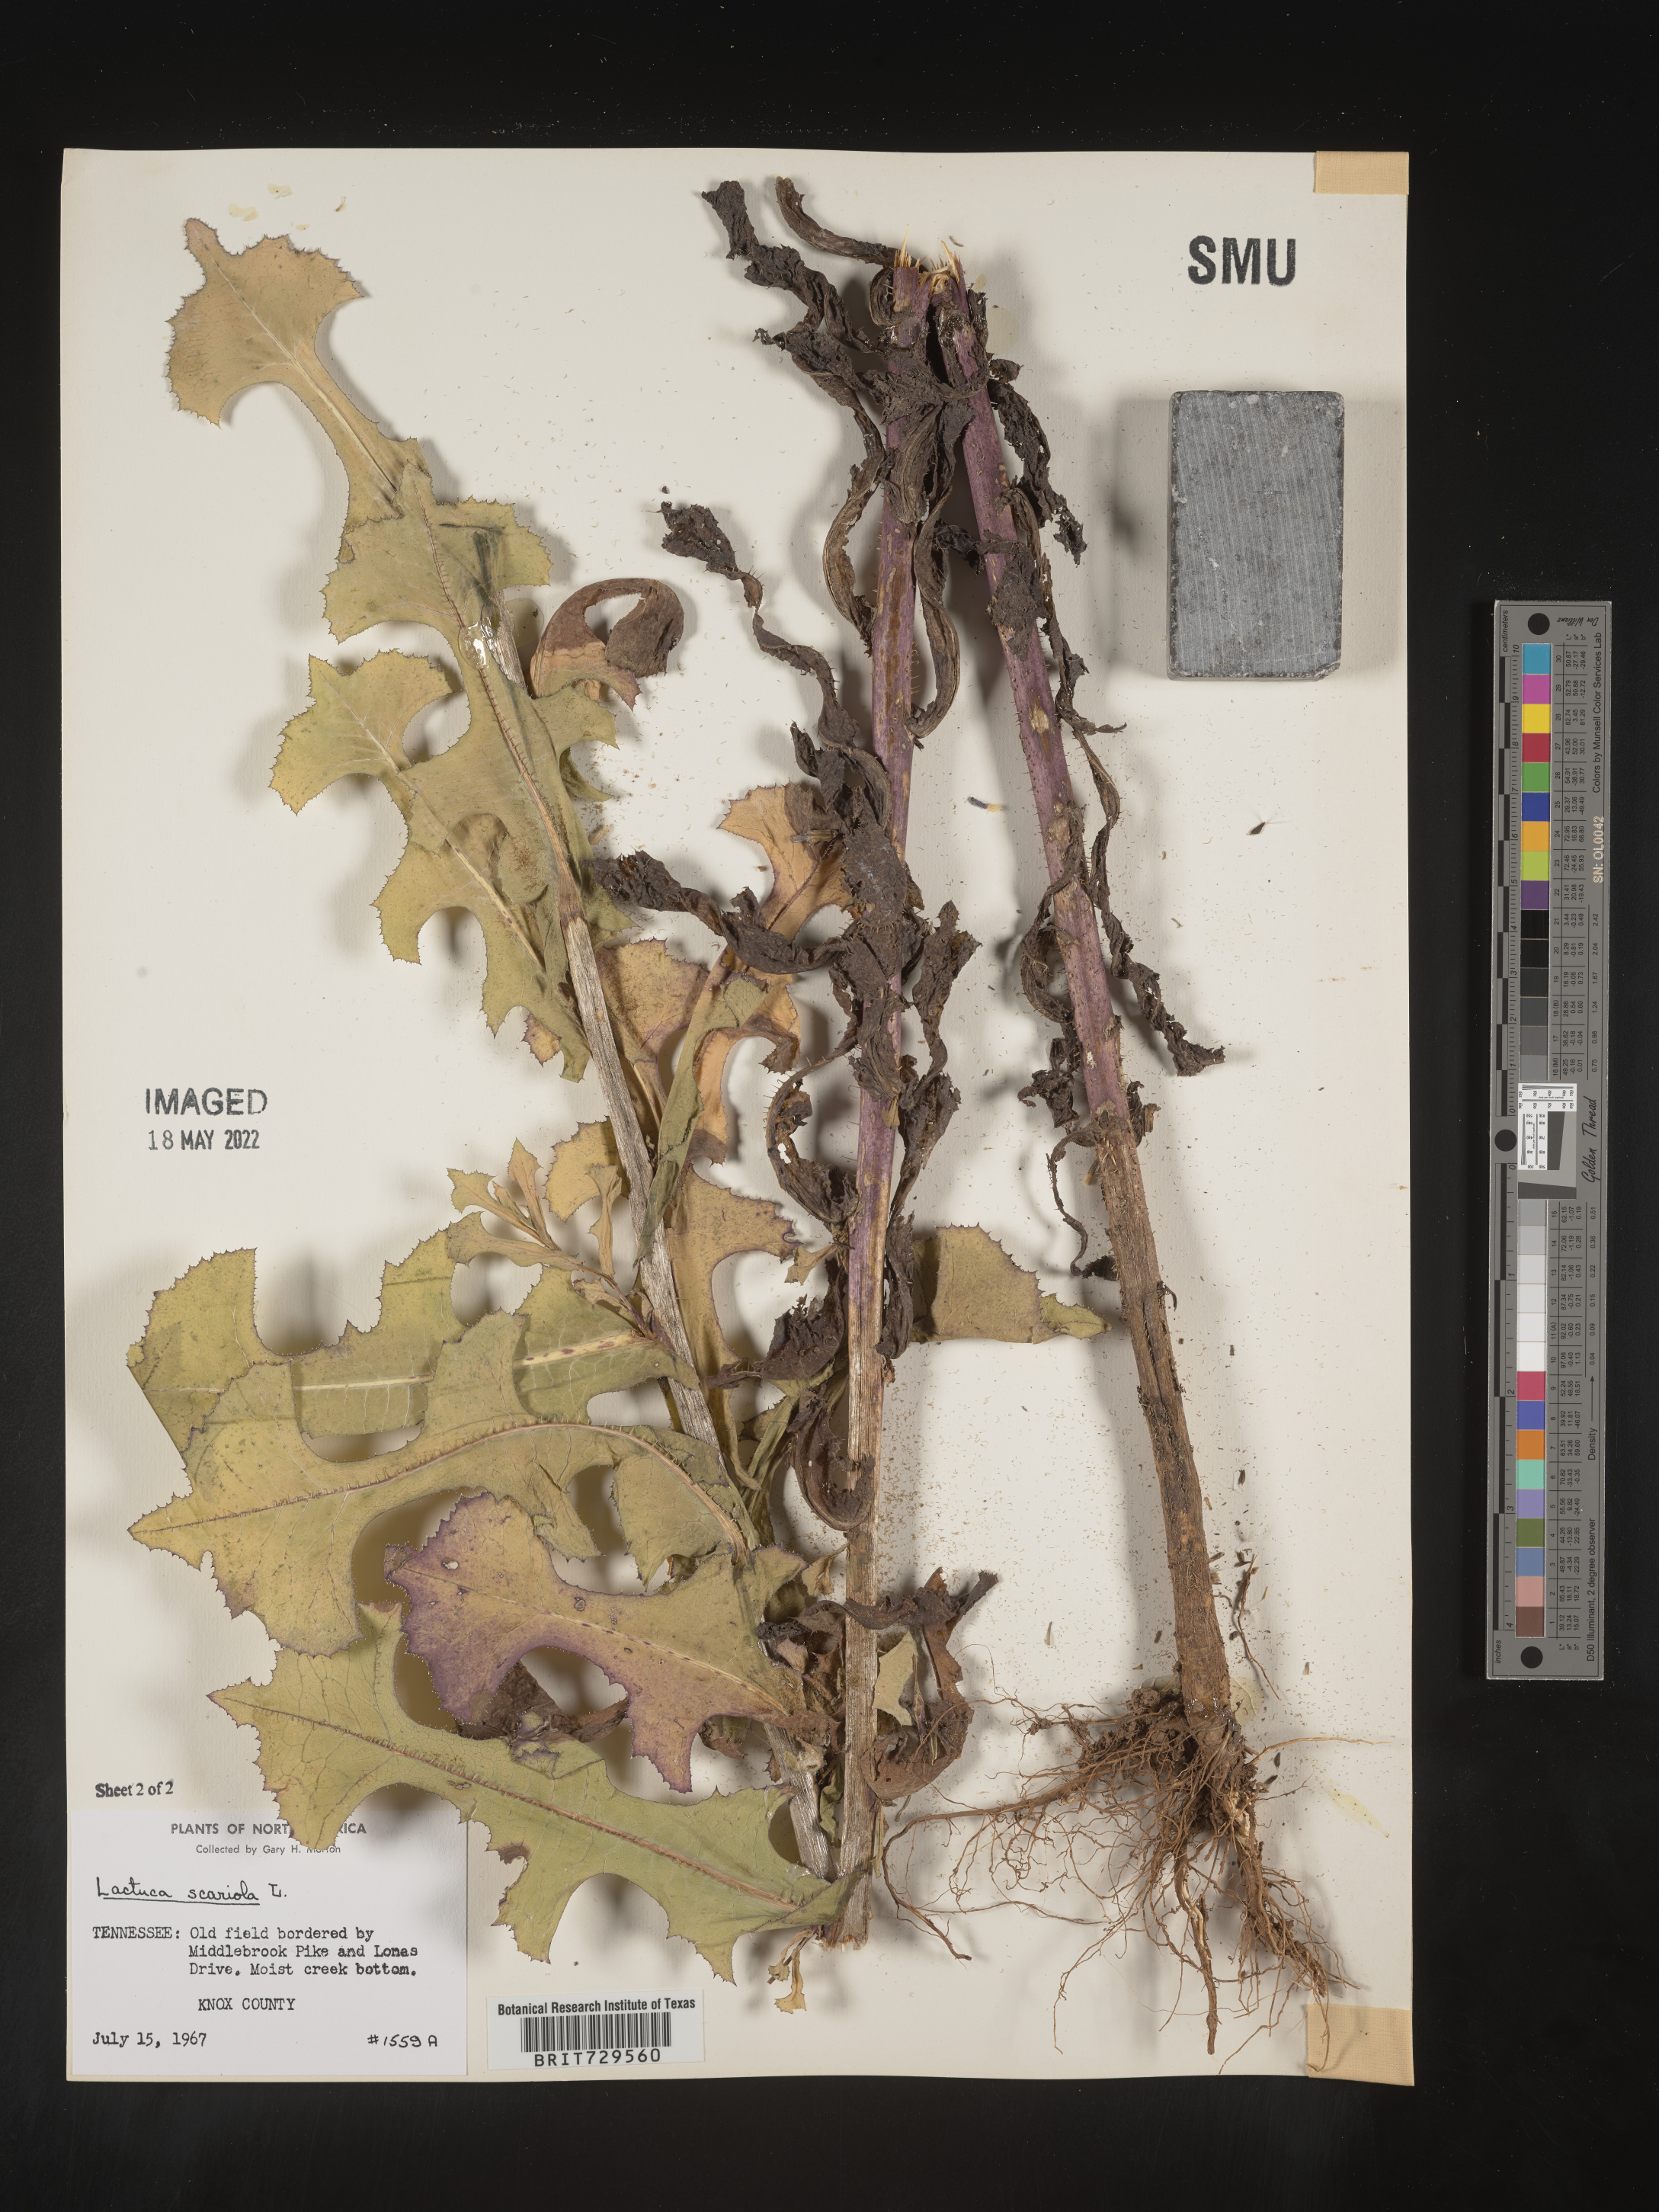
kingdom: Plantae
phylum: Tracheophyta
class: Magnoliopsida
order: Asterales
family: Asteraceae
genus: Lactuca
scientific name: Lactuca serriola
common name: Prickly lettuce
